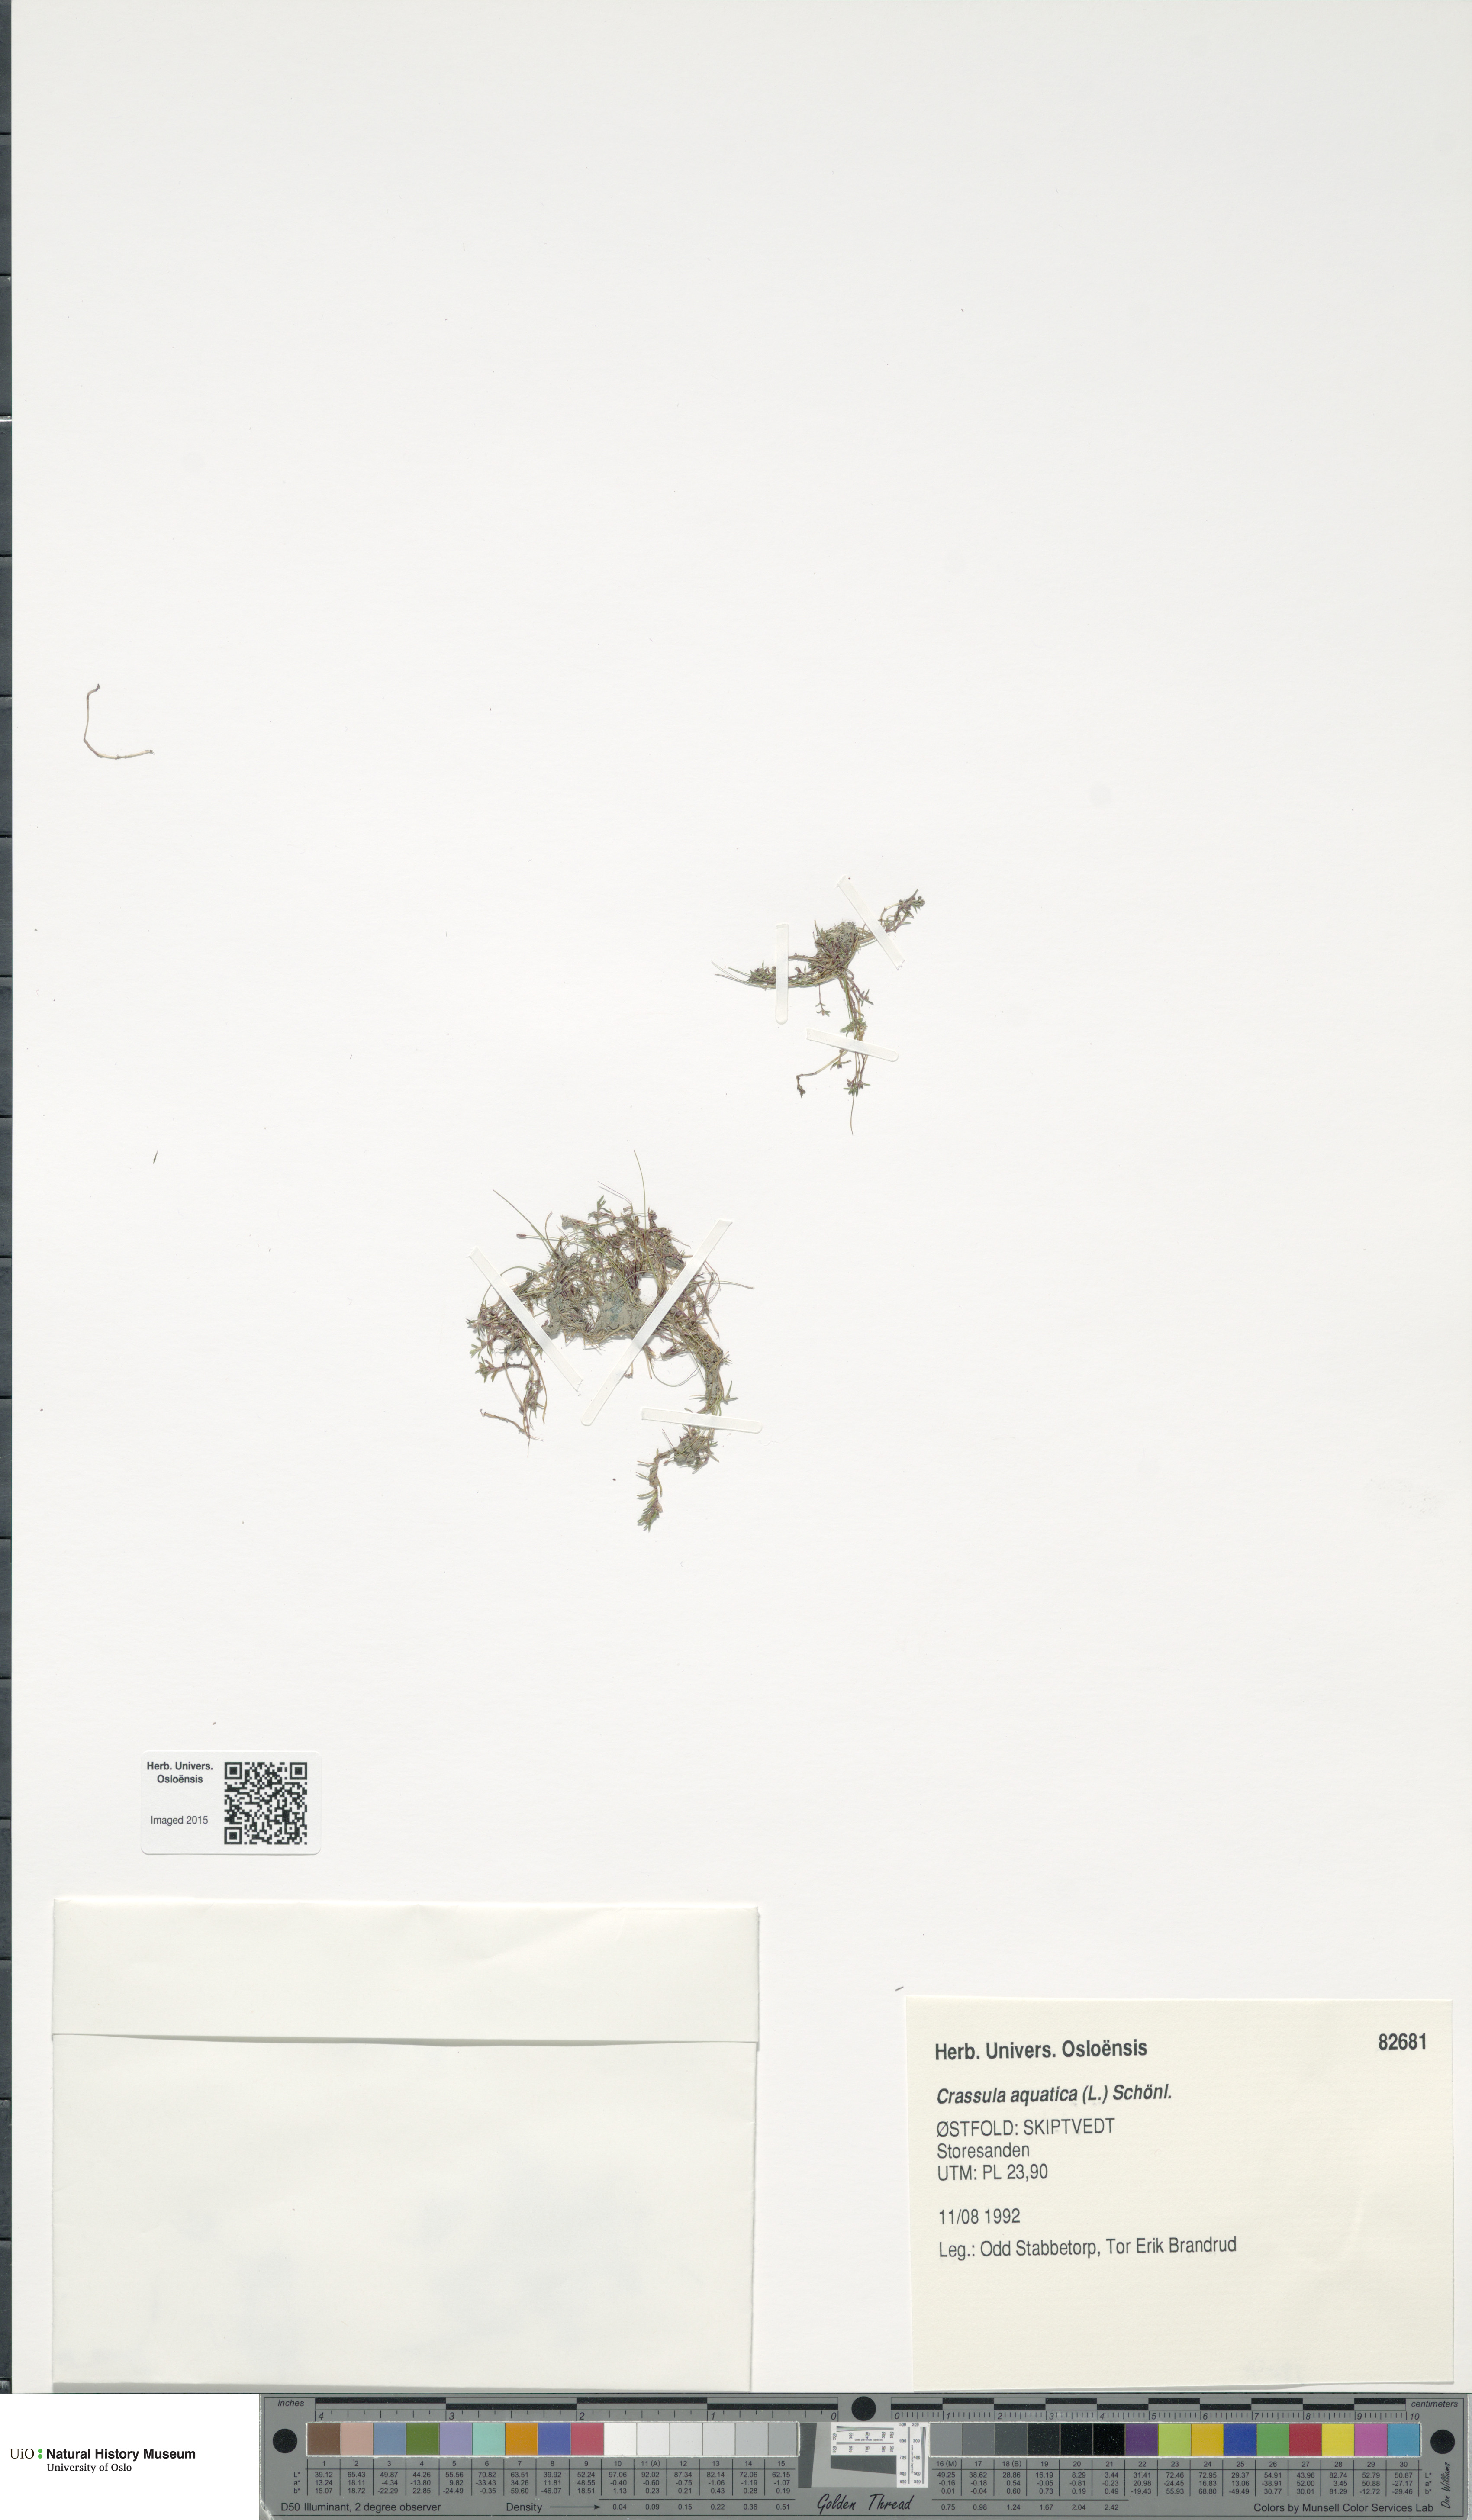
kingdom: Plantae
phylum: Tracheophyta
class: Magnoliopsida
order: Saxifragales
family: Crassulaceae
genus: Crassula
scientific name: Crassula aquatica
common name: Pigmyweed
